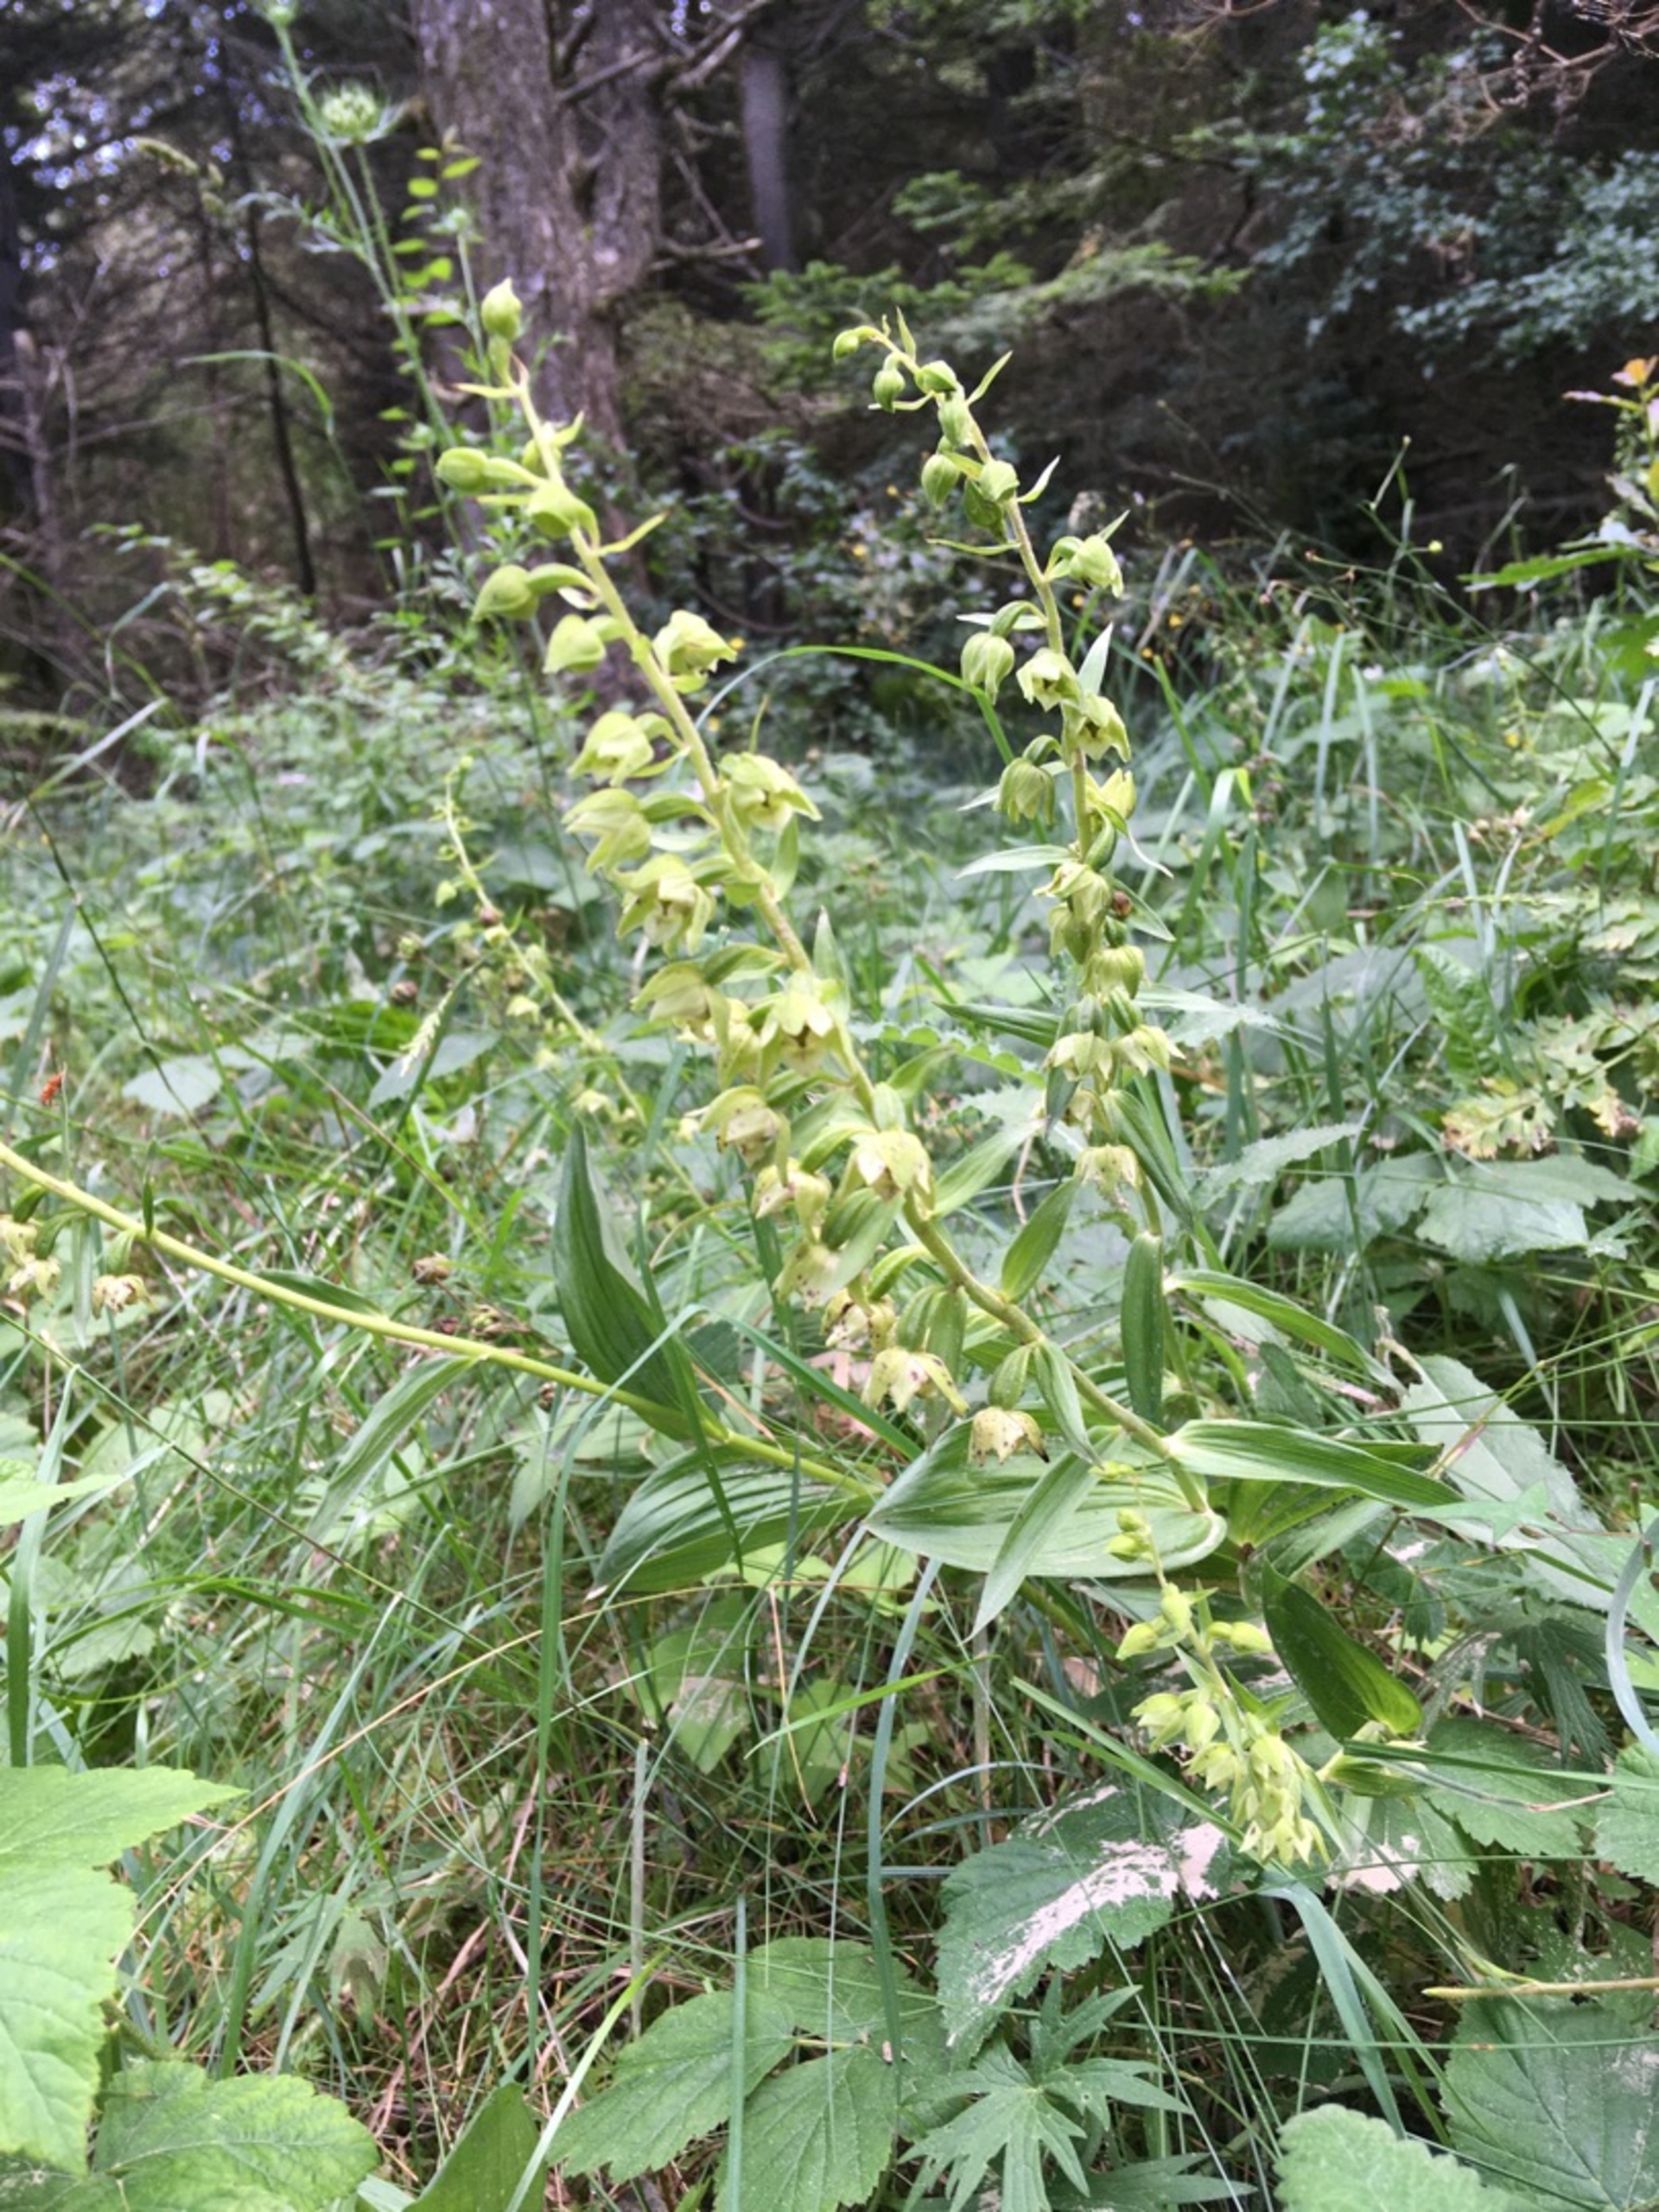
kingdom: Plantae
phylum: Tracheophyta
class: Liliopsida
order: Asparagales
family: Orchidaceae
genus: Epipactis
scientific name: Epipactis helleborine
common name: Hollandsk hullæbe
